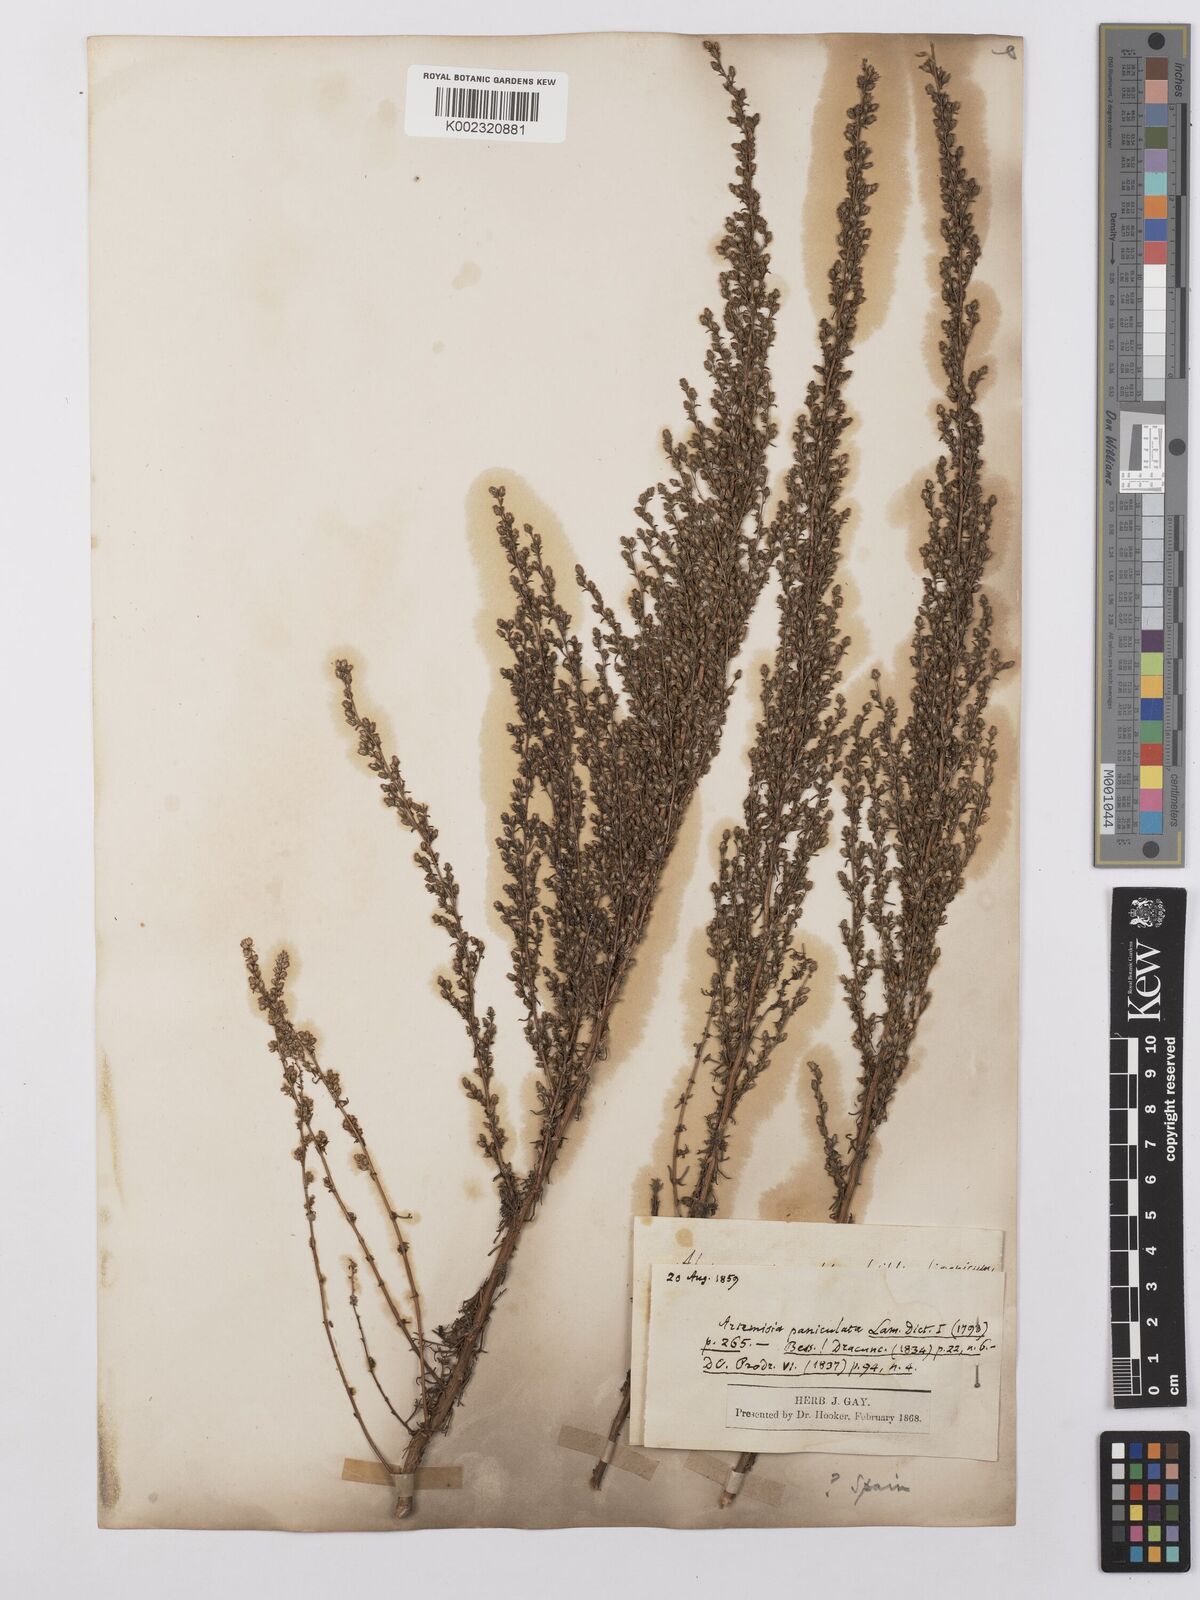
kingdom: Plantae
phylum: Tracheophyta
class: Magnoliopsida
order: Asterales
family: Asteraceae
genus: Artemisia
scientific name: Artemisia abrotanum
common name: Southernwood
